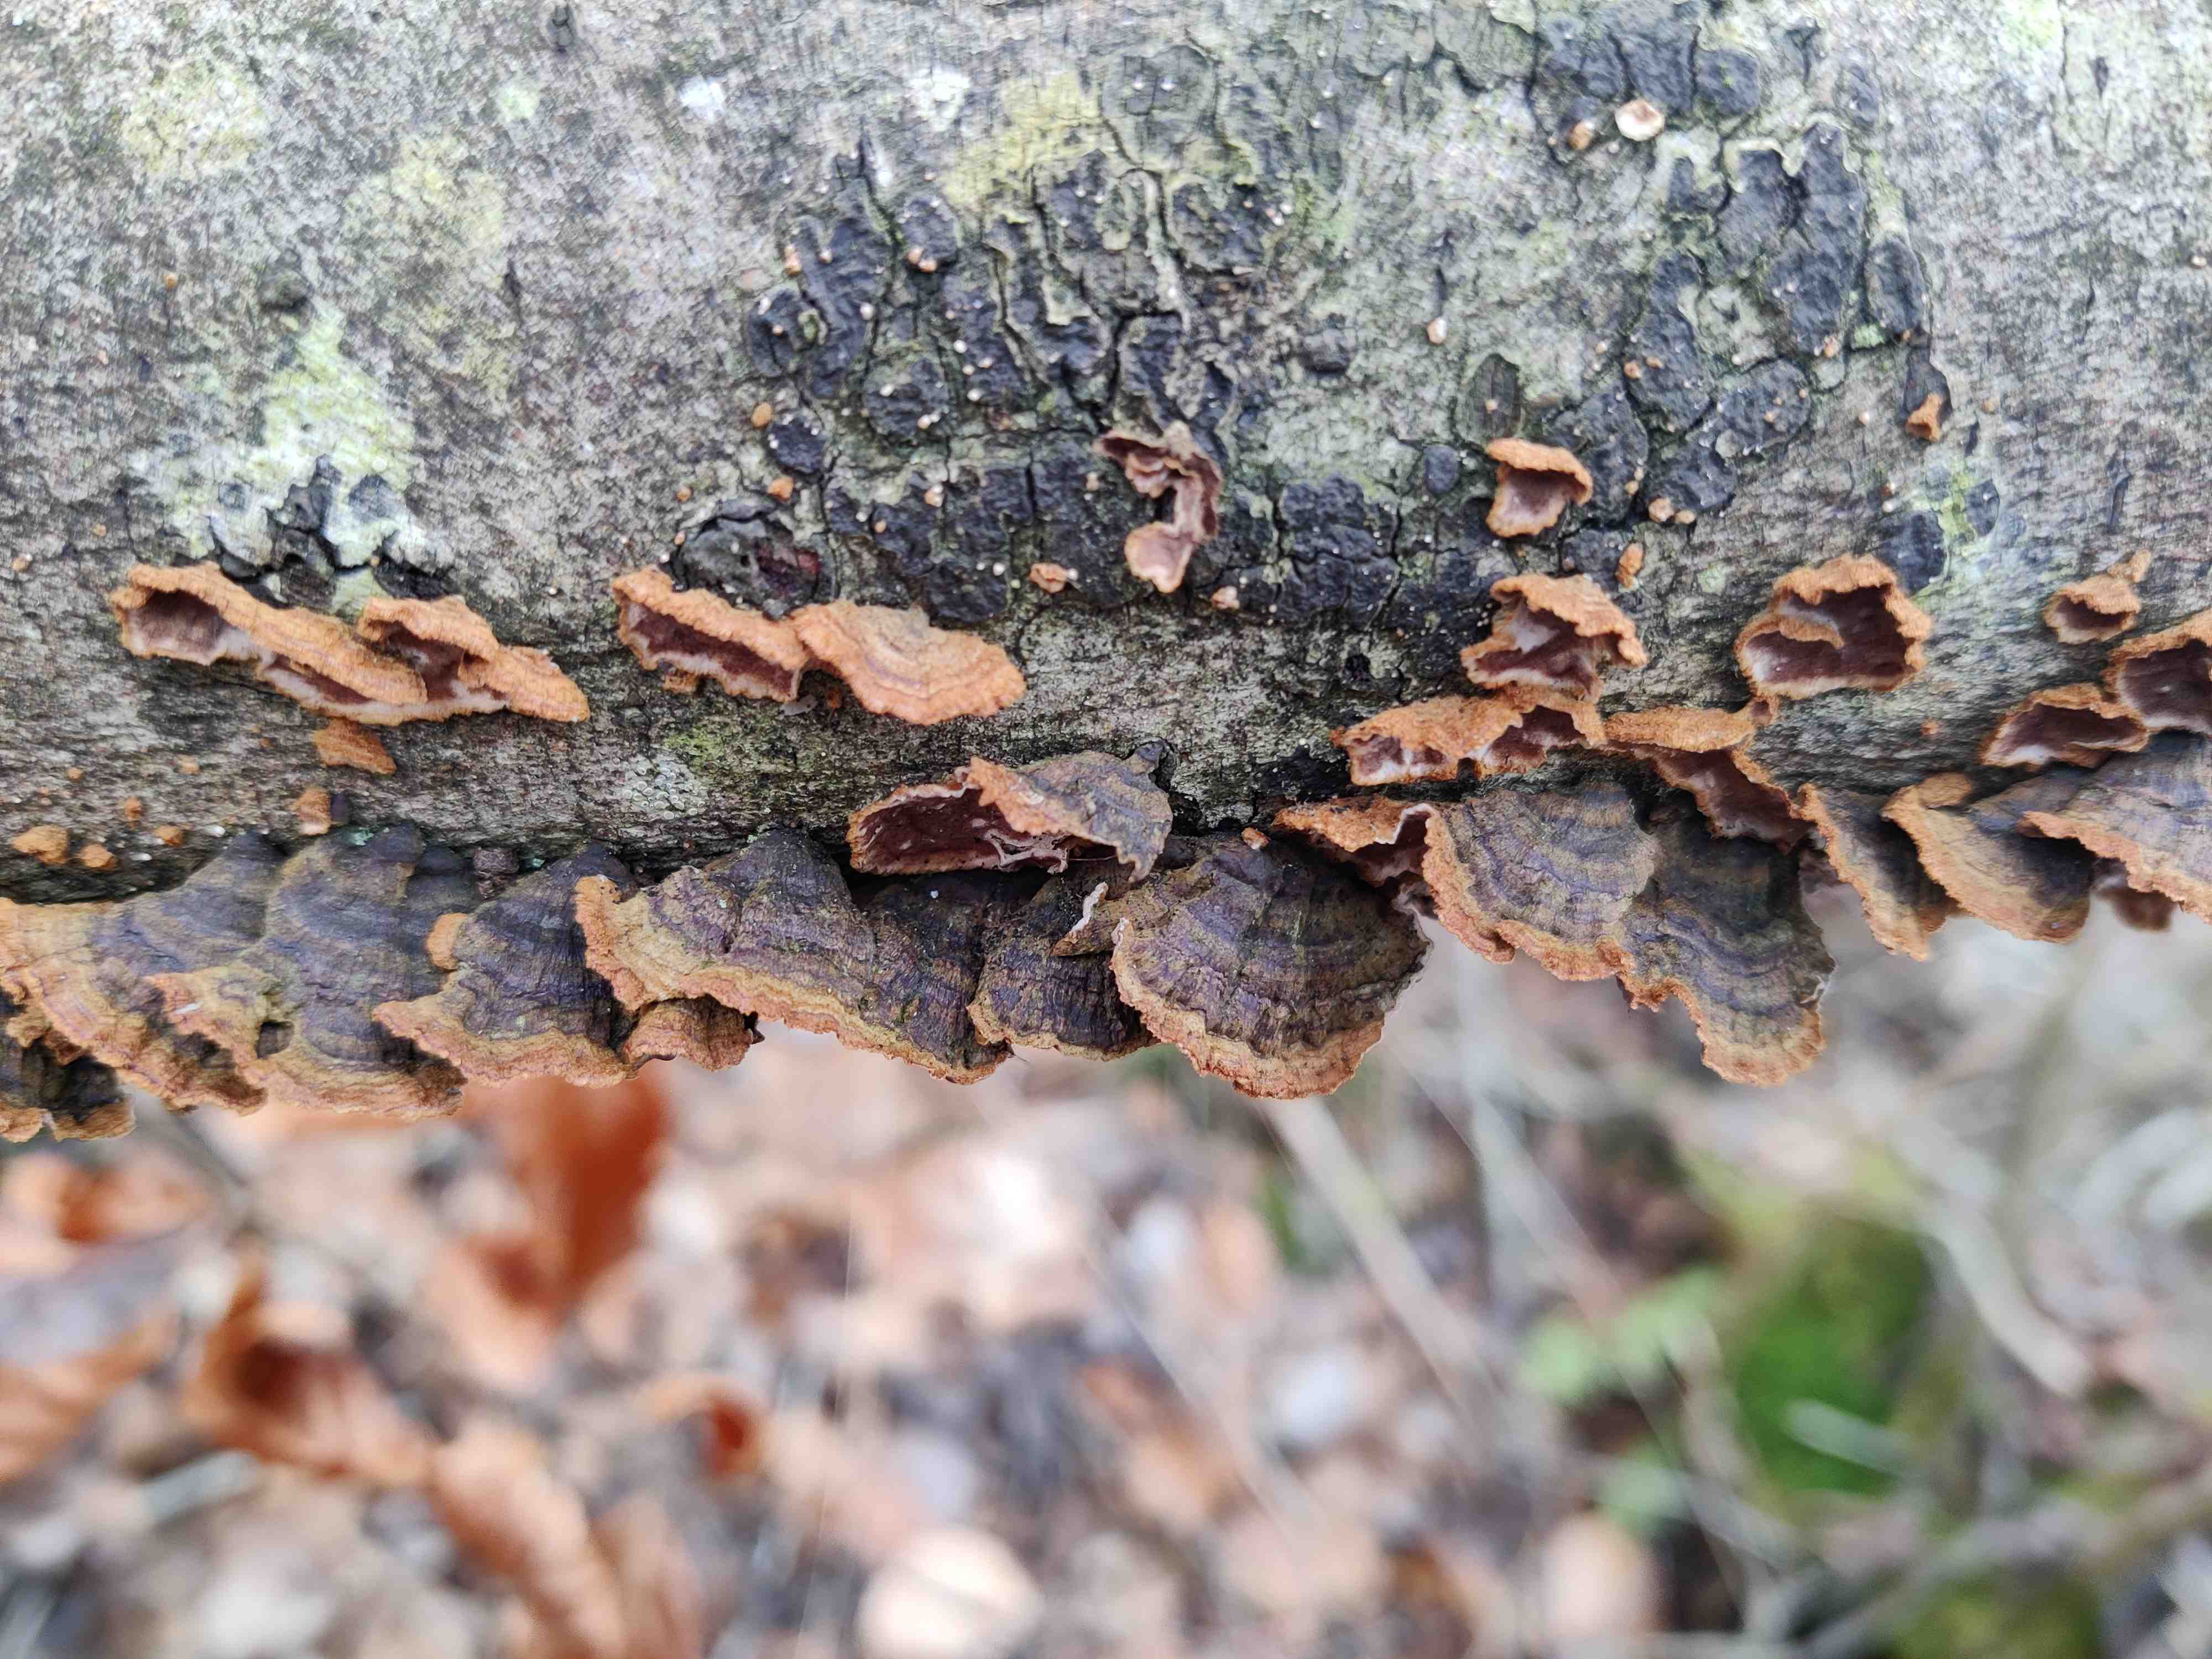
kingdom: Fungi
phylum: Basidiomycota
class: Agaricomycetes
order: Hymenochaetales
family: Hymenochaetaceae
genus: Hydnoporia
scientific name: Hydnoporia tabacina
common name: tobaksbrun ruslædersvamp
